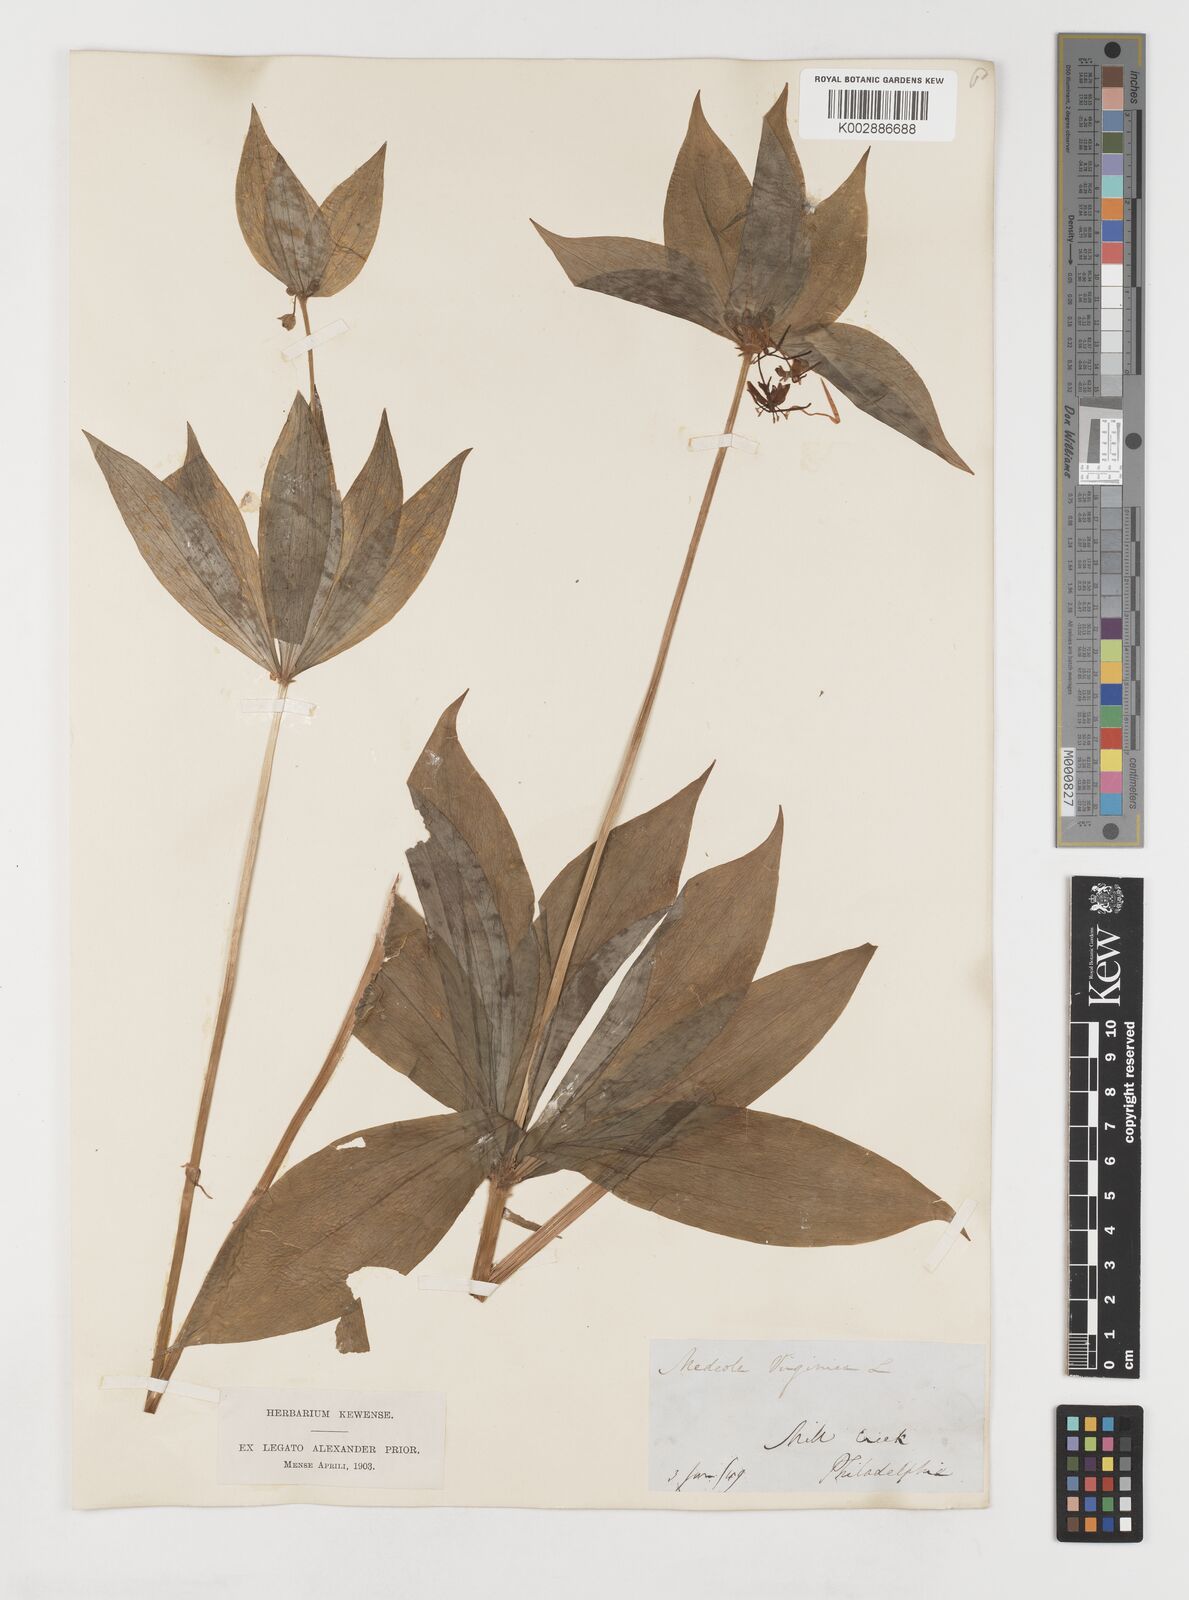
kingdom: Plantae
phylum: Tracheophyta
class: Liliopsida
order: Liliales
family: Liliaceae
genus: Medeola
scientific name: Medeola virginiana
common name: Indian cucumber-root
